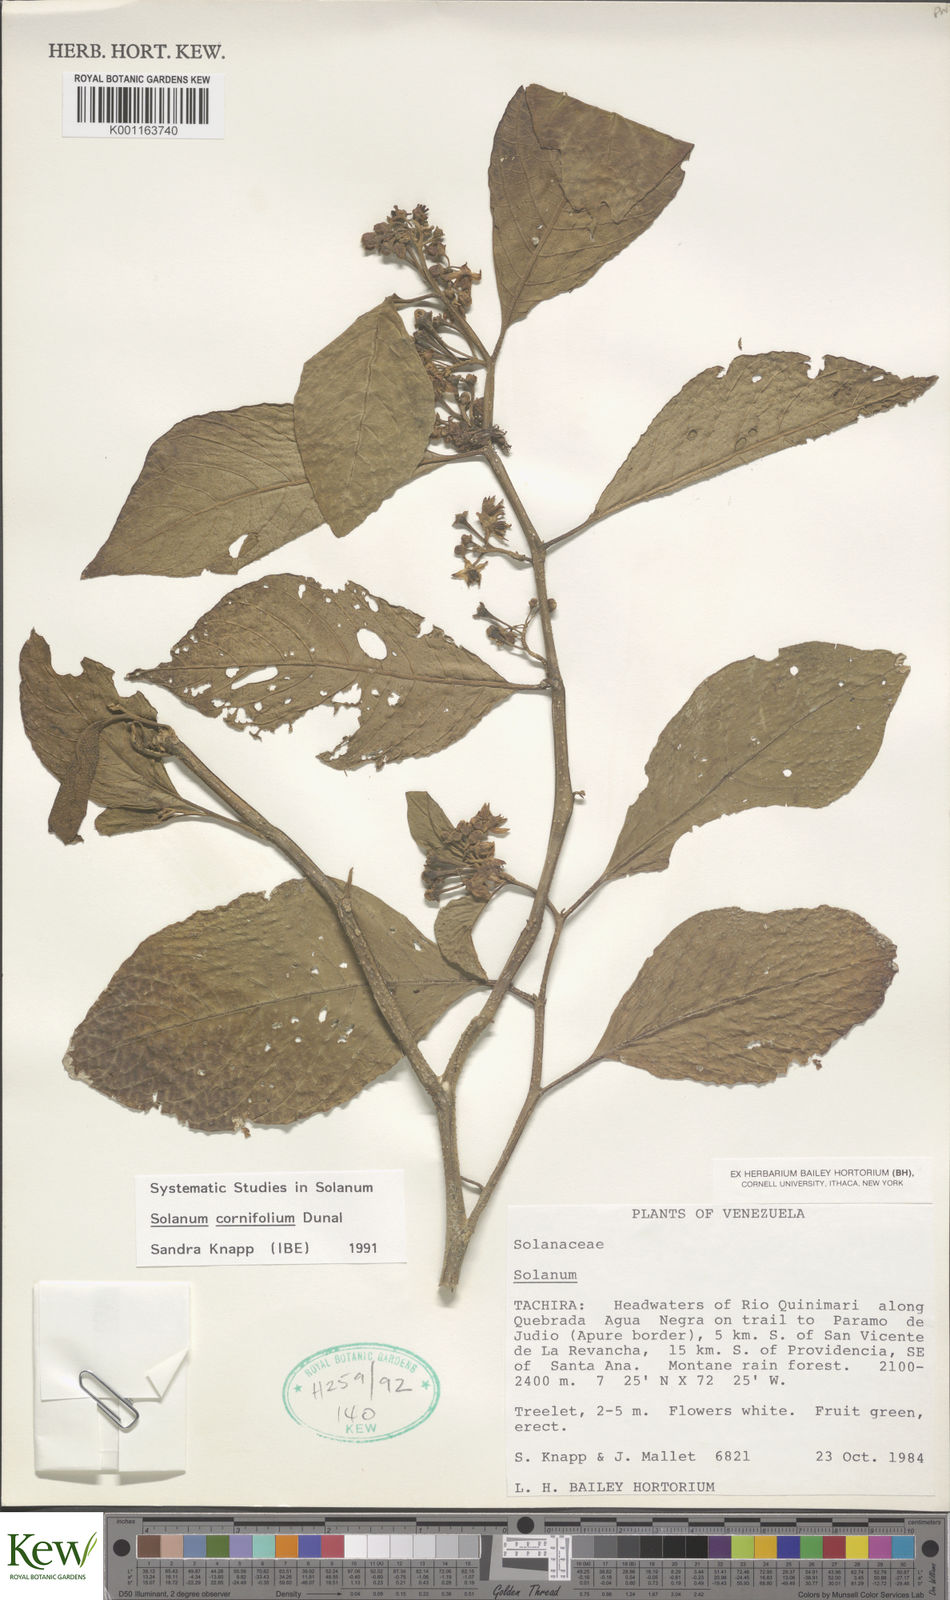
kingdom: Plantae
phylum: Tracheophyta
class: Magnoliopsida
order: Solanales
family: Solanaceae
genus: Solanum
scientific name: Solanum cornifolium
